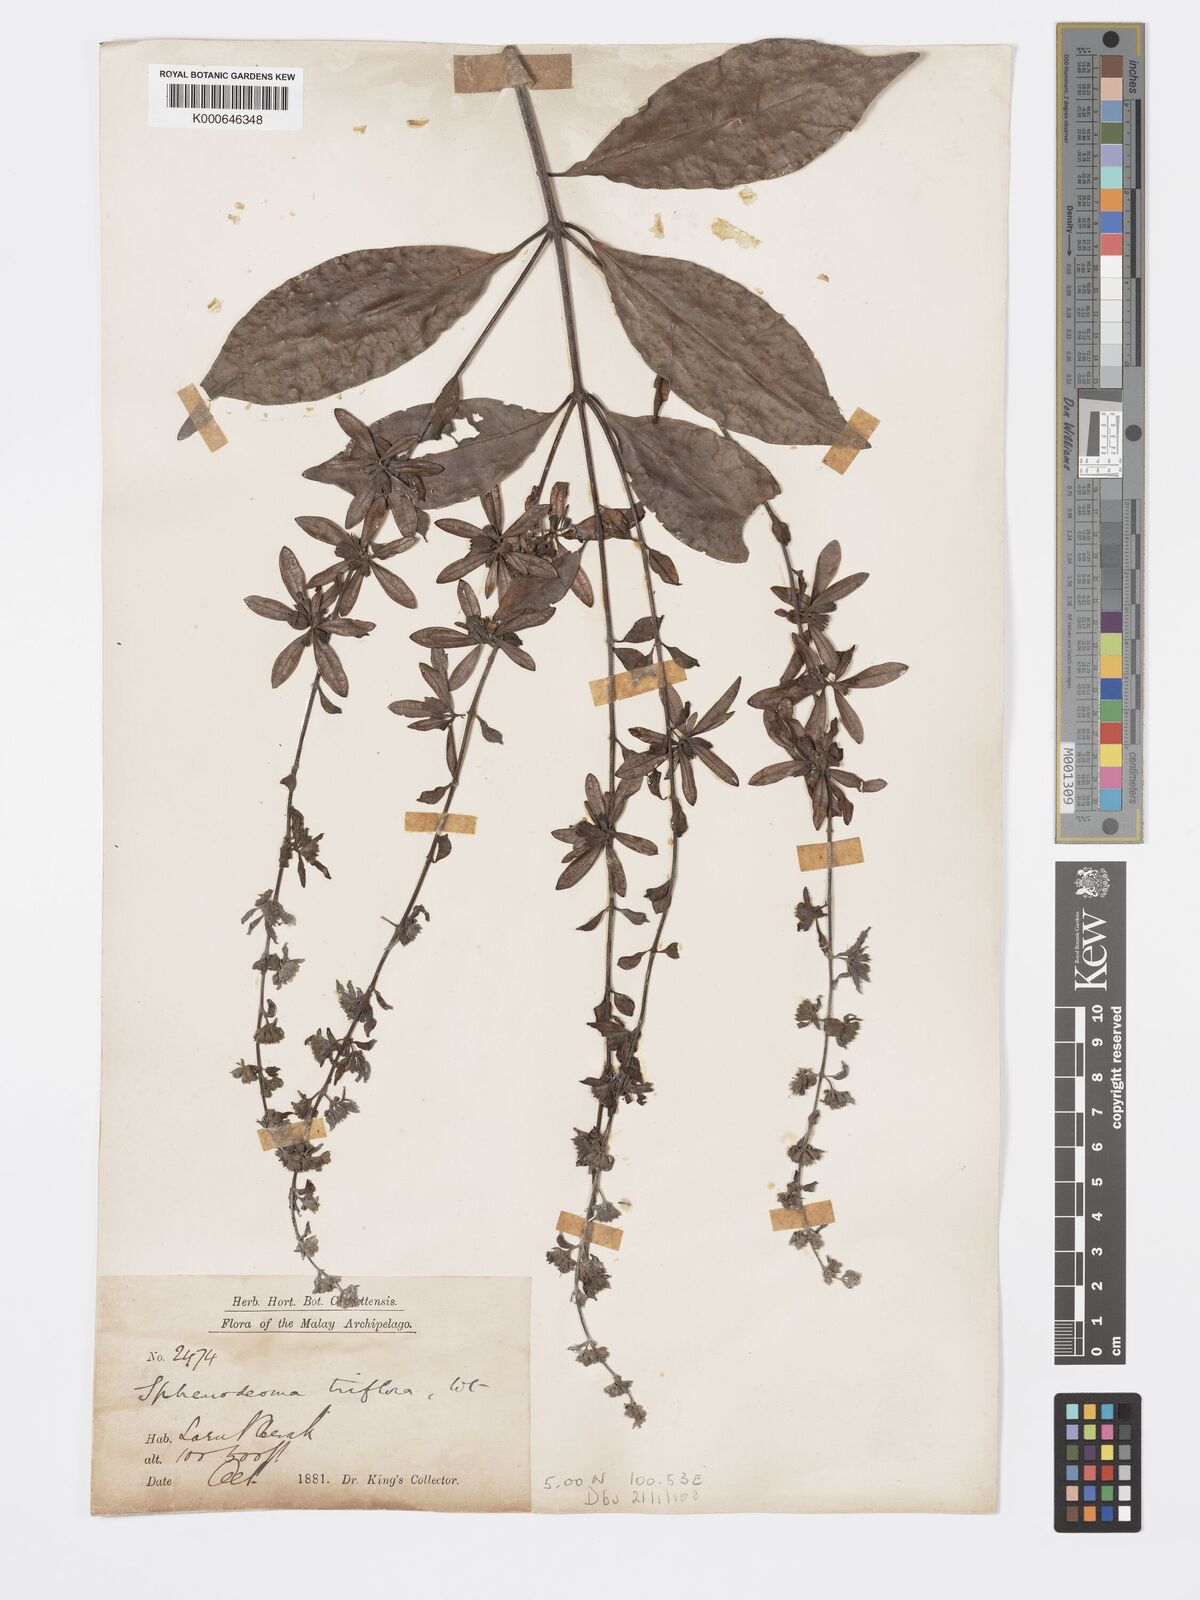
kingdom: Plantae
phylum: Tracheophyta
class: Magnoliopsida
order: Lamiales
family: Lamiaceae
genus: Sphenodesme
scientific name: Sphenodesme
